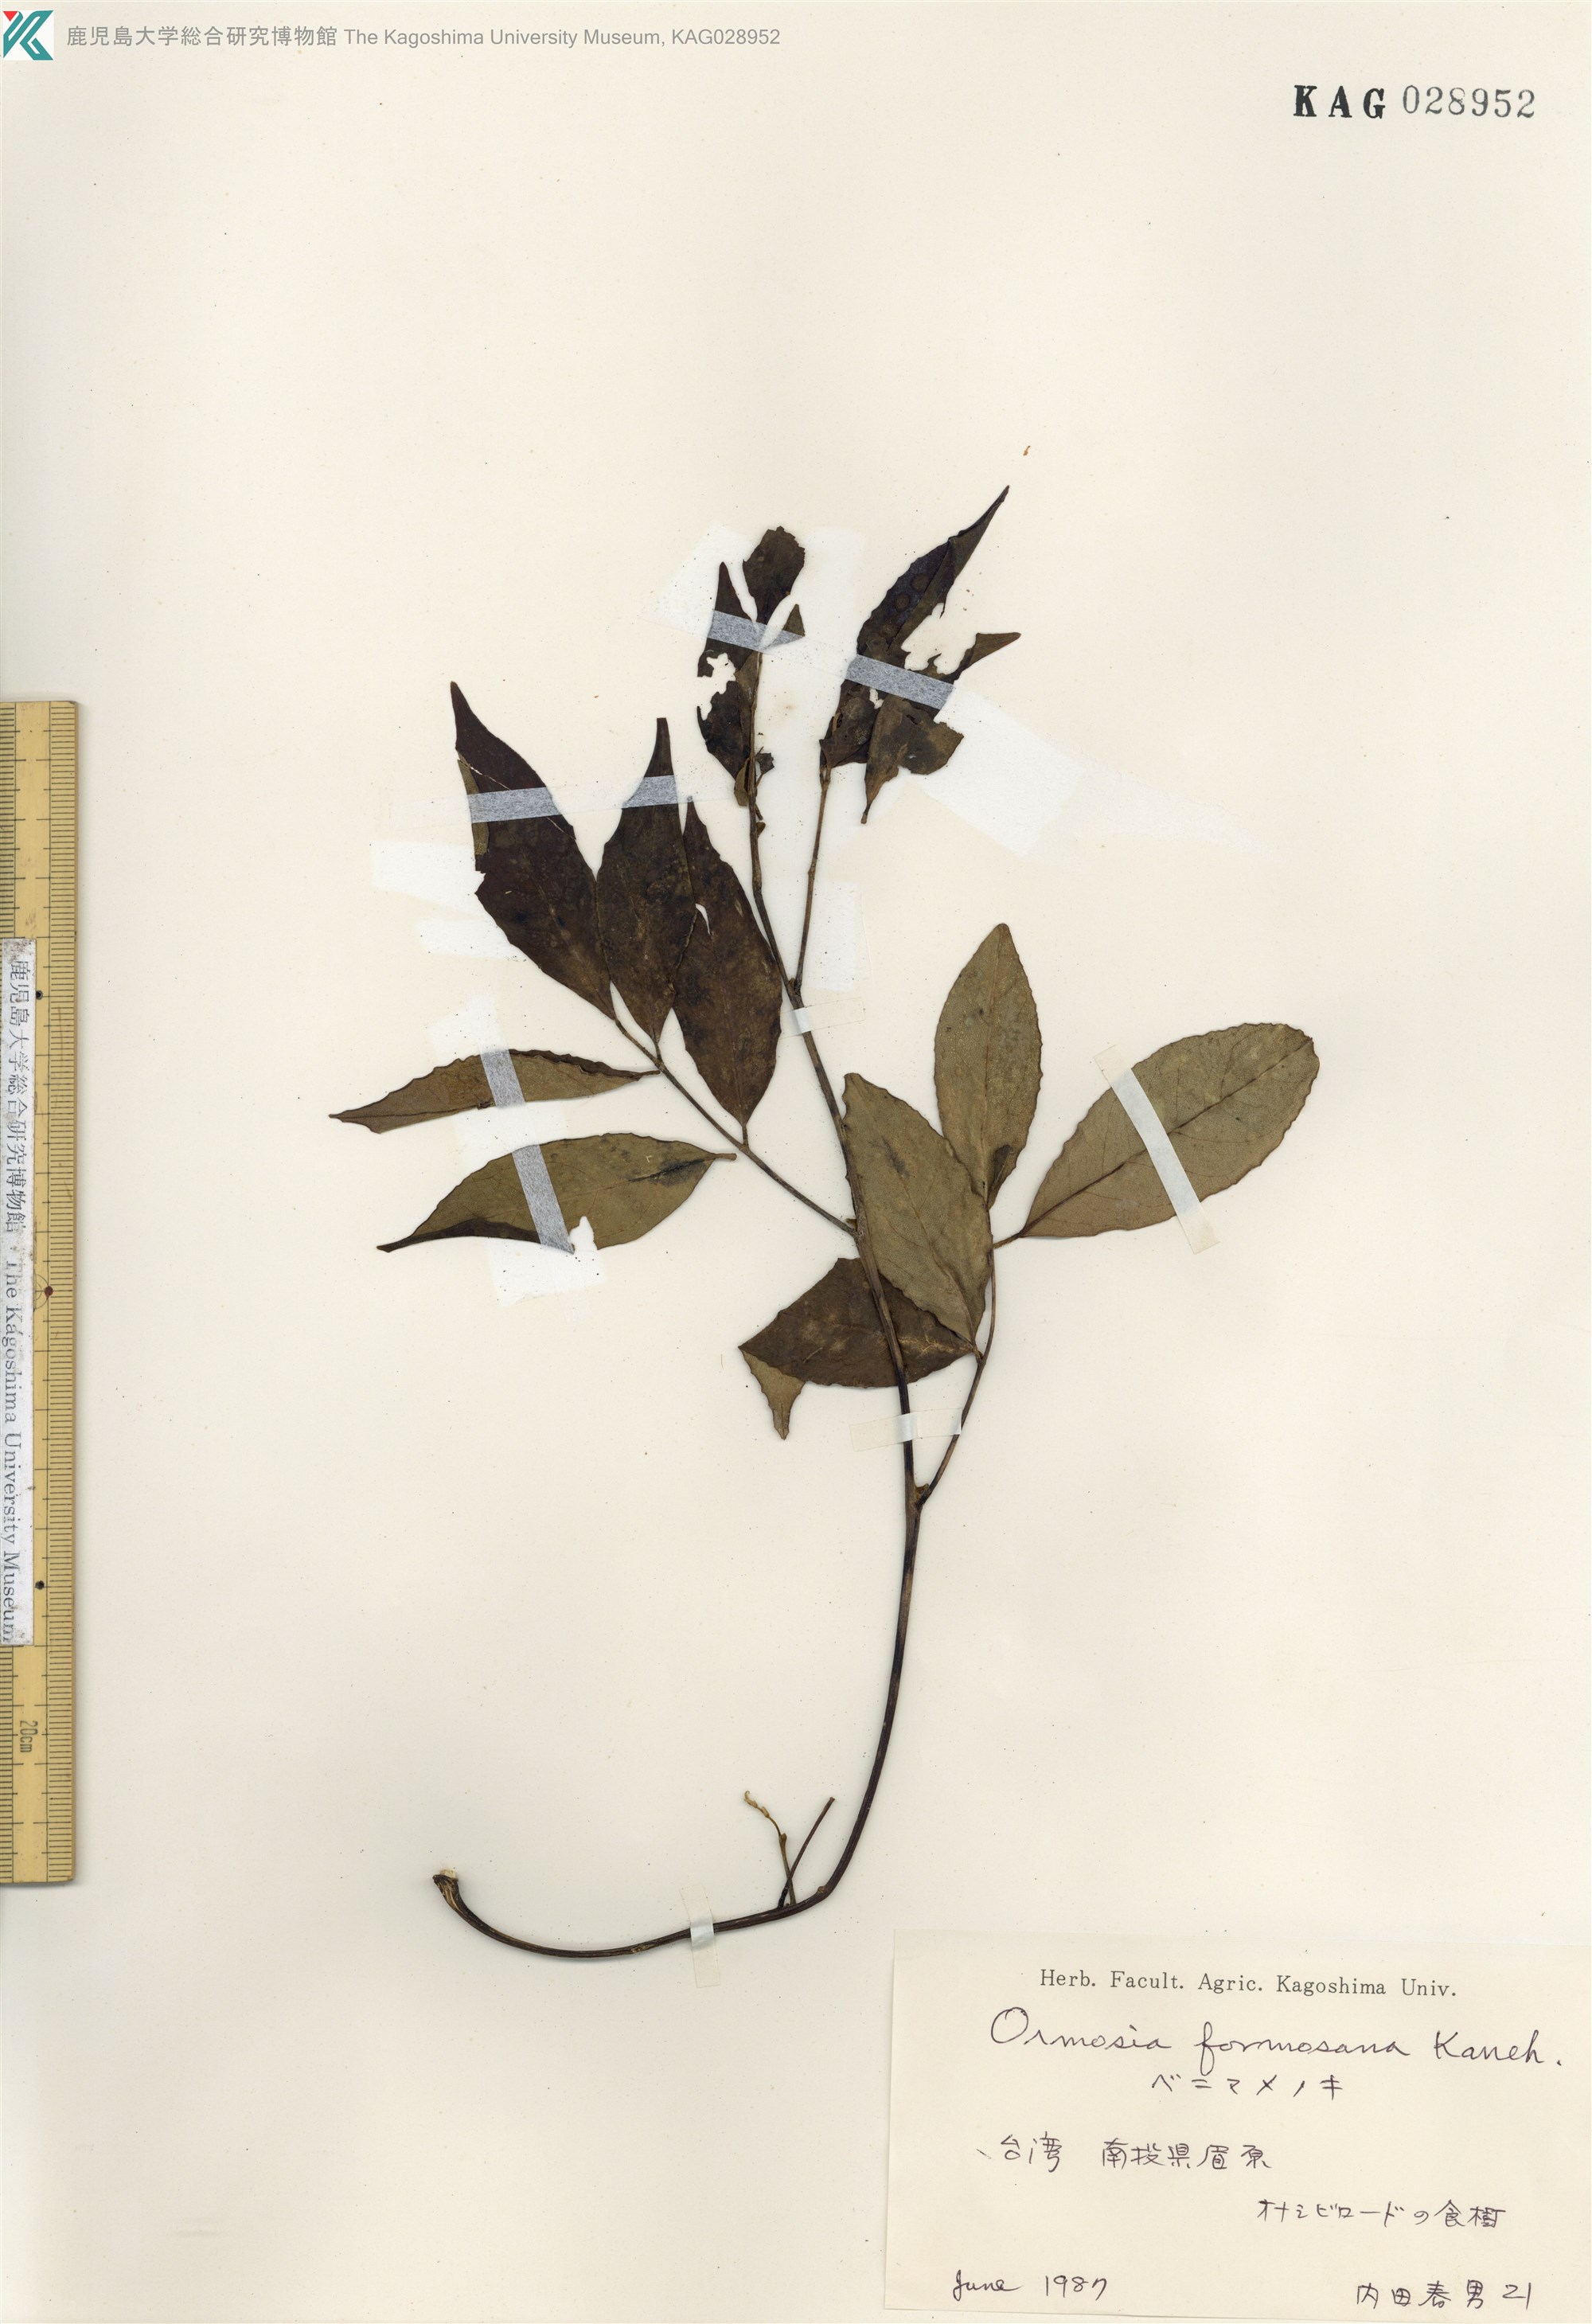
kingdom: Plantae
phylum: Tracheophyta
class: Magnoliopsida
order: Fabales
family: Fabaceae
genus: Ormosia
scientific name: Ormosia formosana
